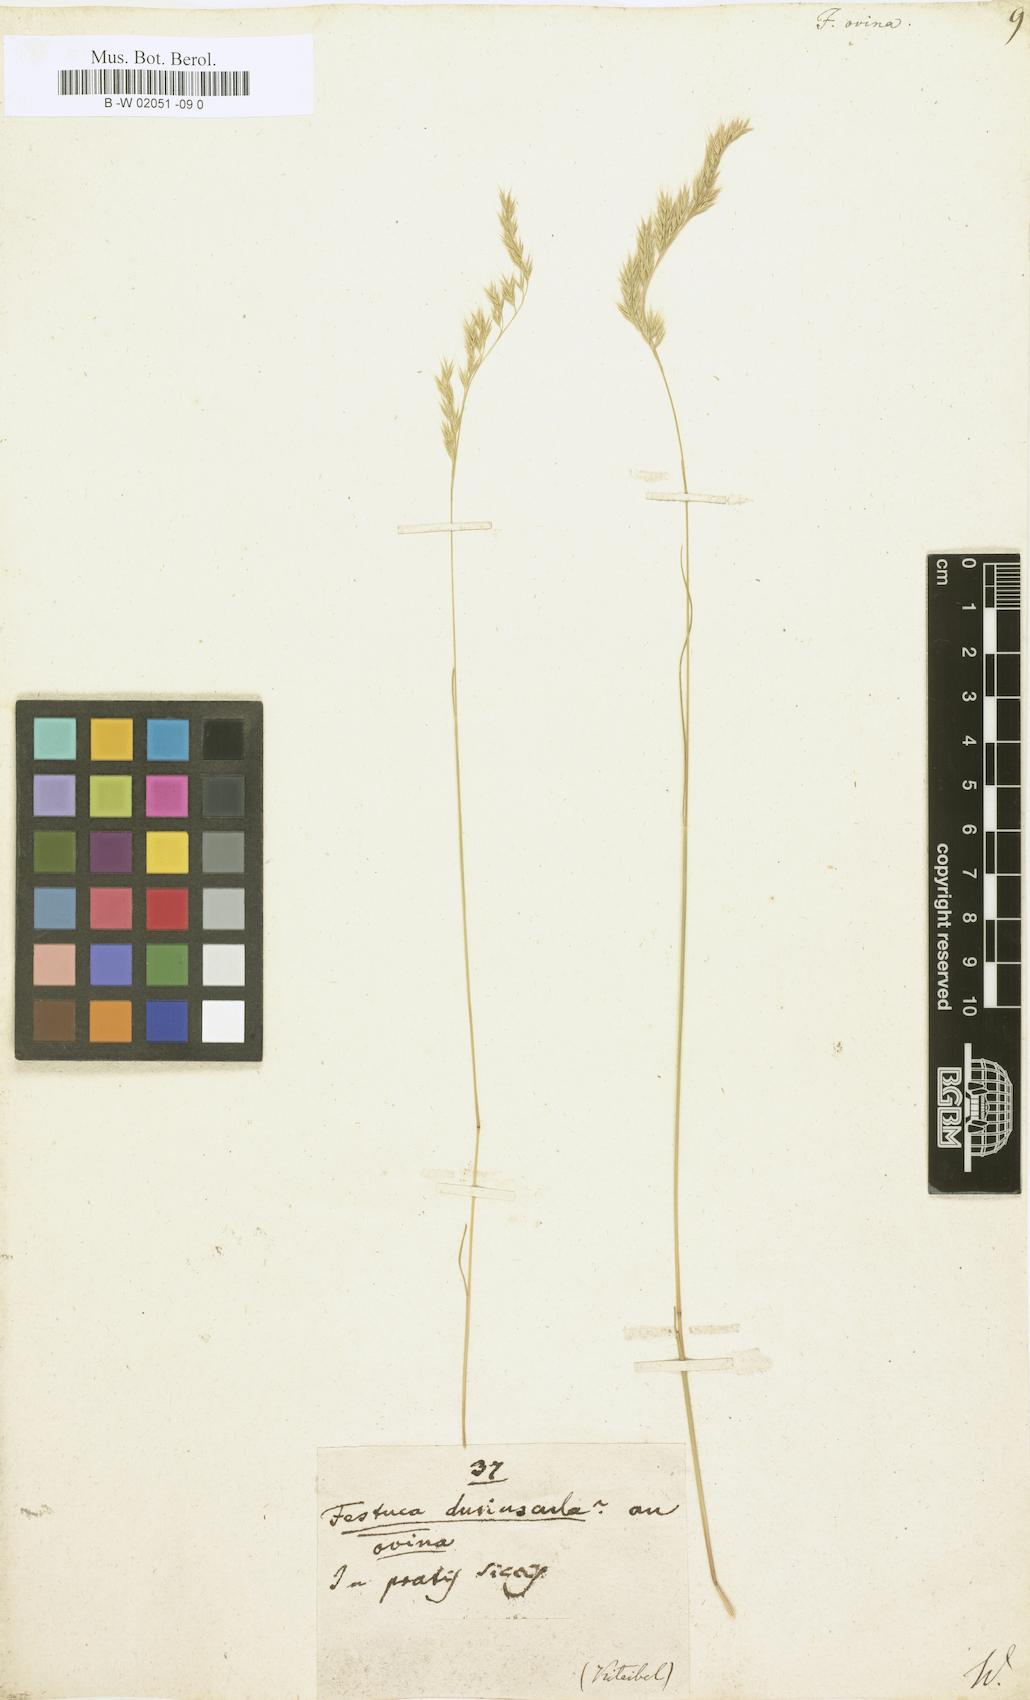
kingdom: Plantae
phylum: Tracheophyta
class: Liliopsida
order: Poales
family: Poaceae
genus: Festuca
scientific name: Festuca ovina
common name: Sheep fescue
